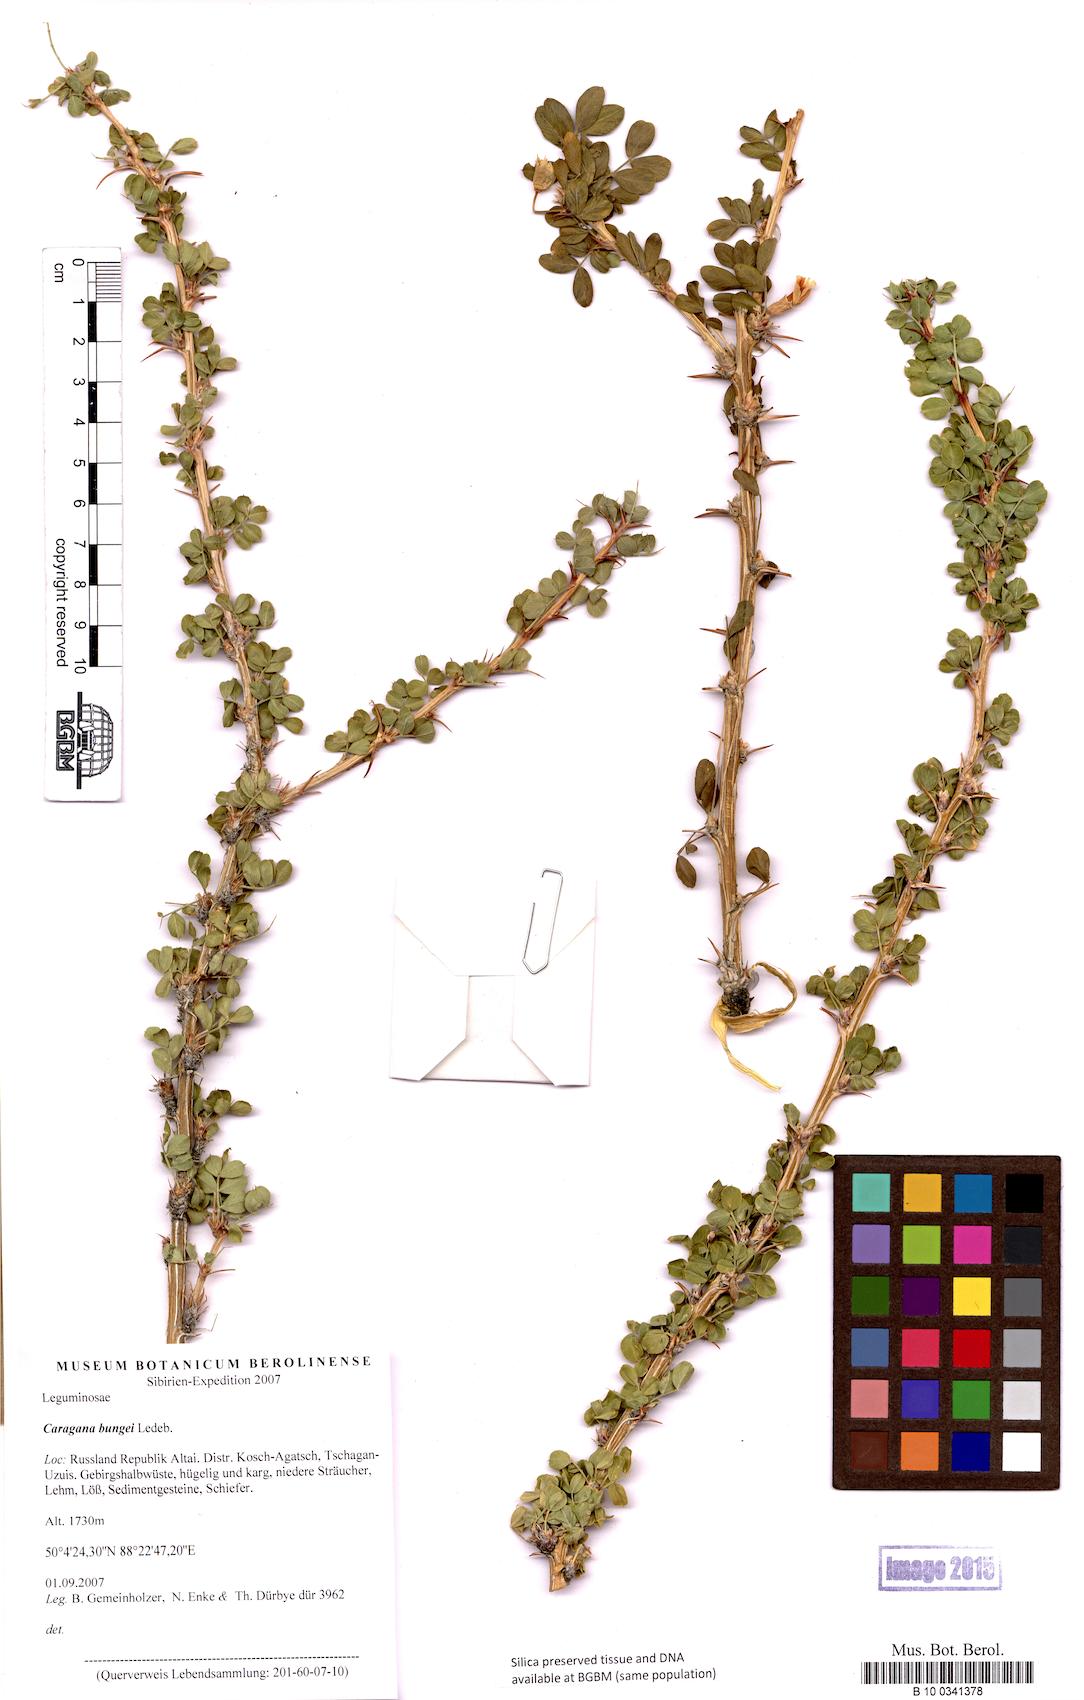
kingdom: Plantae
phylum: Tracheophyta
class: Magnoliopsida
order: Fabales
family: Fabaceae
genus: Caragana
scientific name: Caragana bungei
